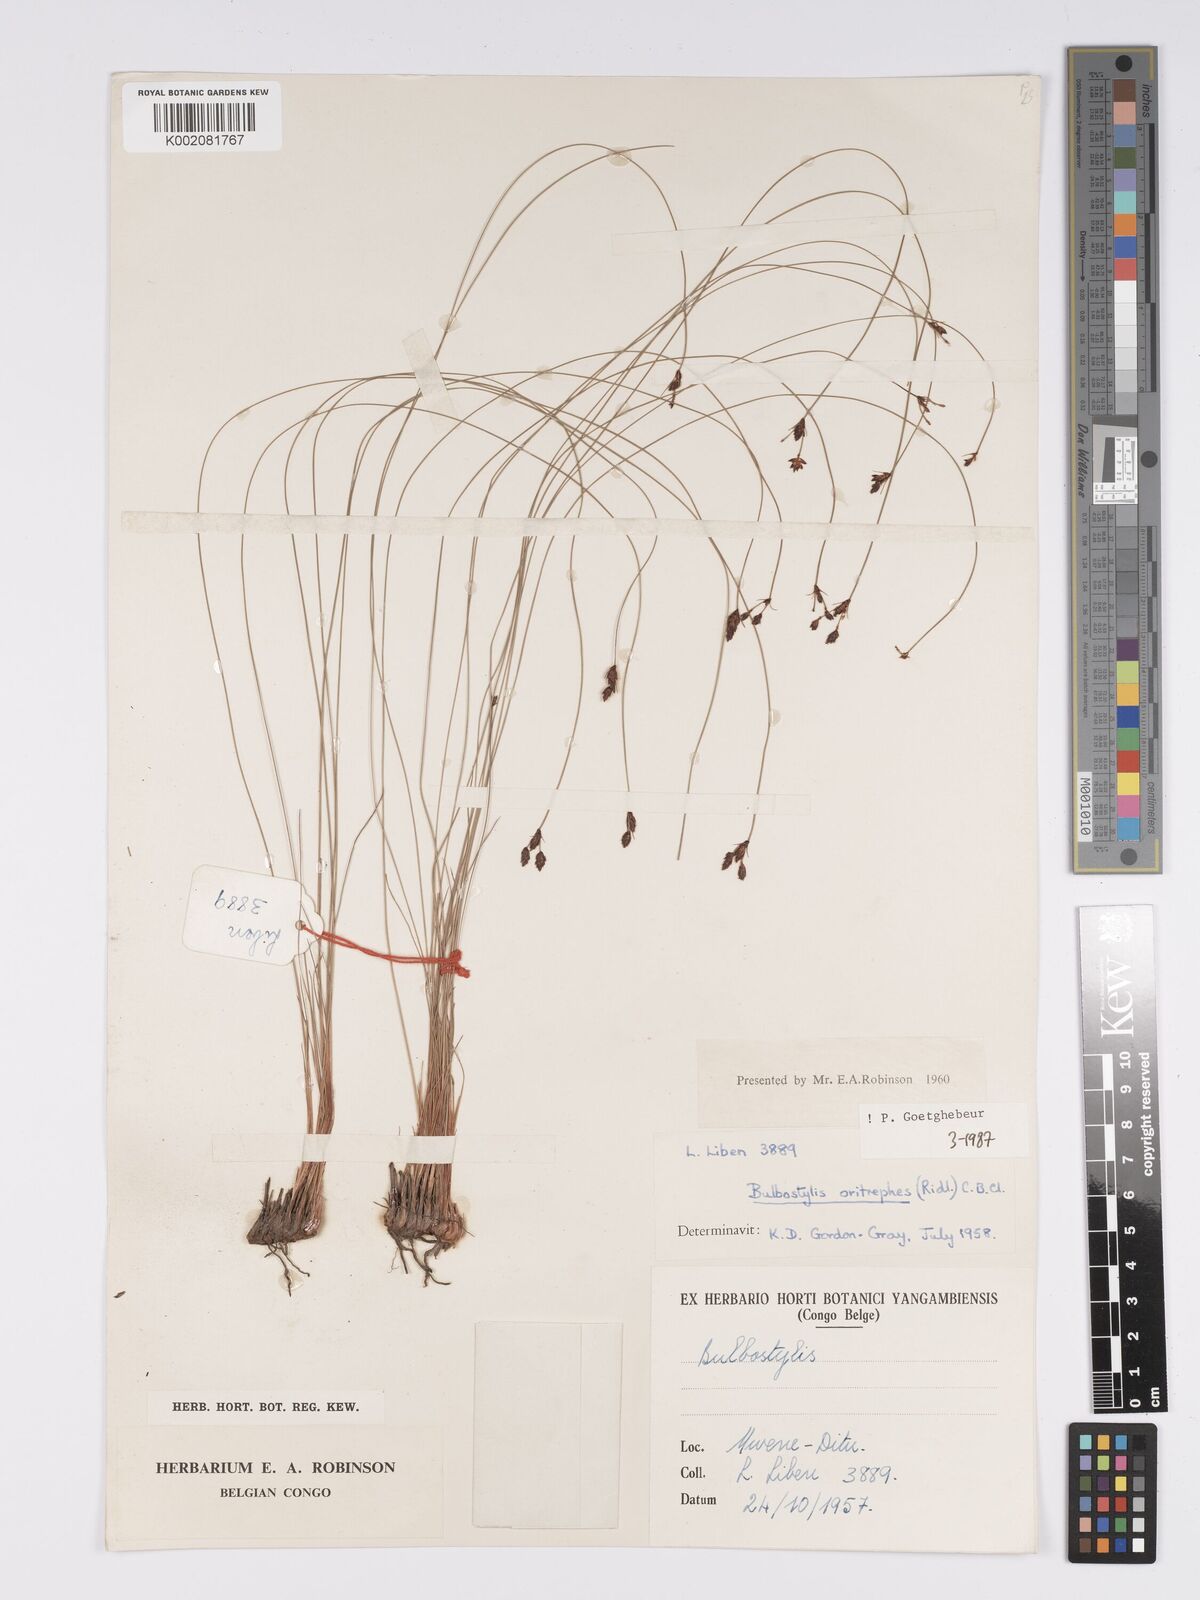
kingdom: Plantae
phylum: Tracheophyta
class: Liliopsida
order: Poales
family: Cyperaceae
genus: Bulbostylis
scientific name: Bulbostylis oritrephes
